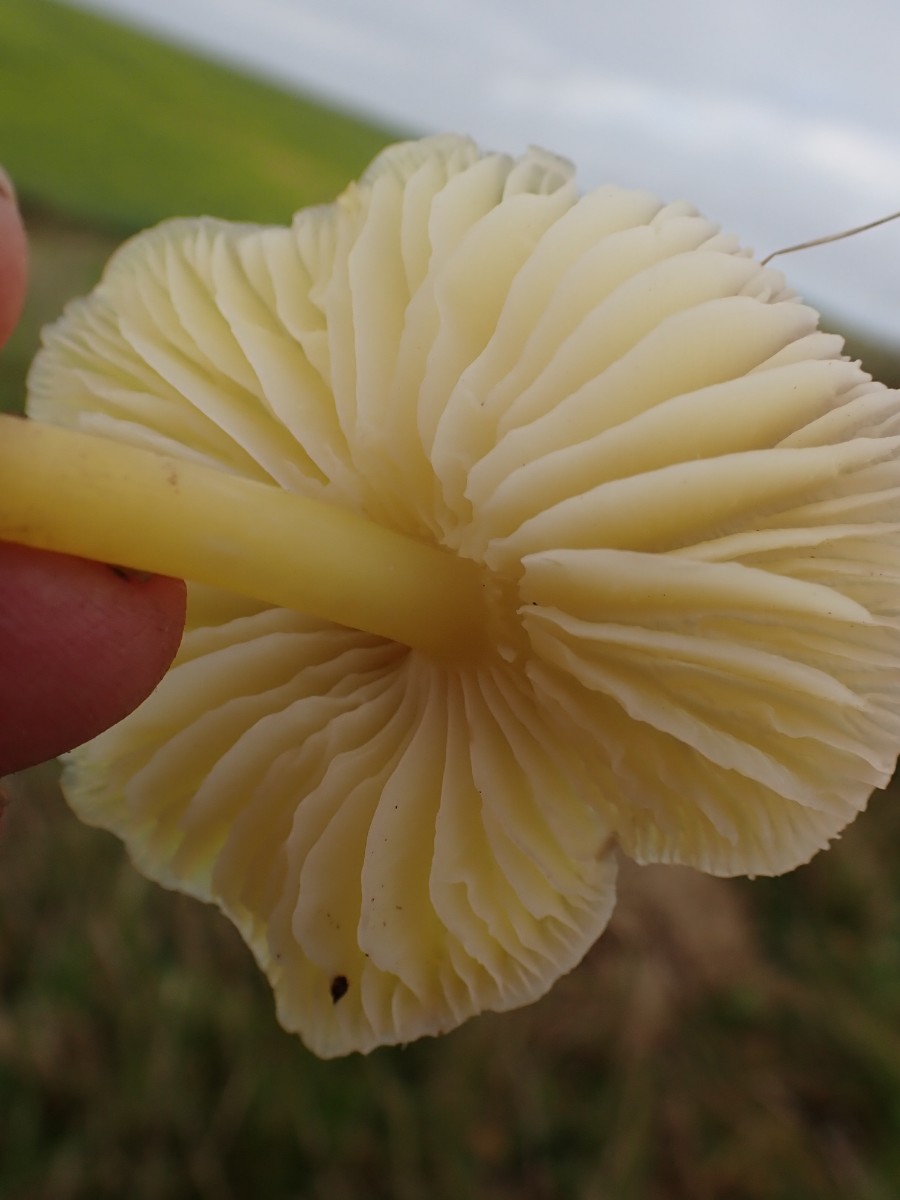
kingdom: Fungi
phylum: Basidiomycota
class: Agaricomycetes
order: Agaricales
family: Hygrophoraceae
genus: Hygrocybe
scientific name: Hygrocybe chlorophana
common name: gul vokshat
